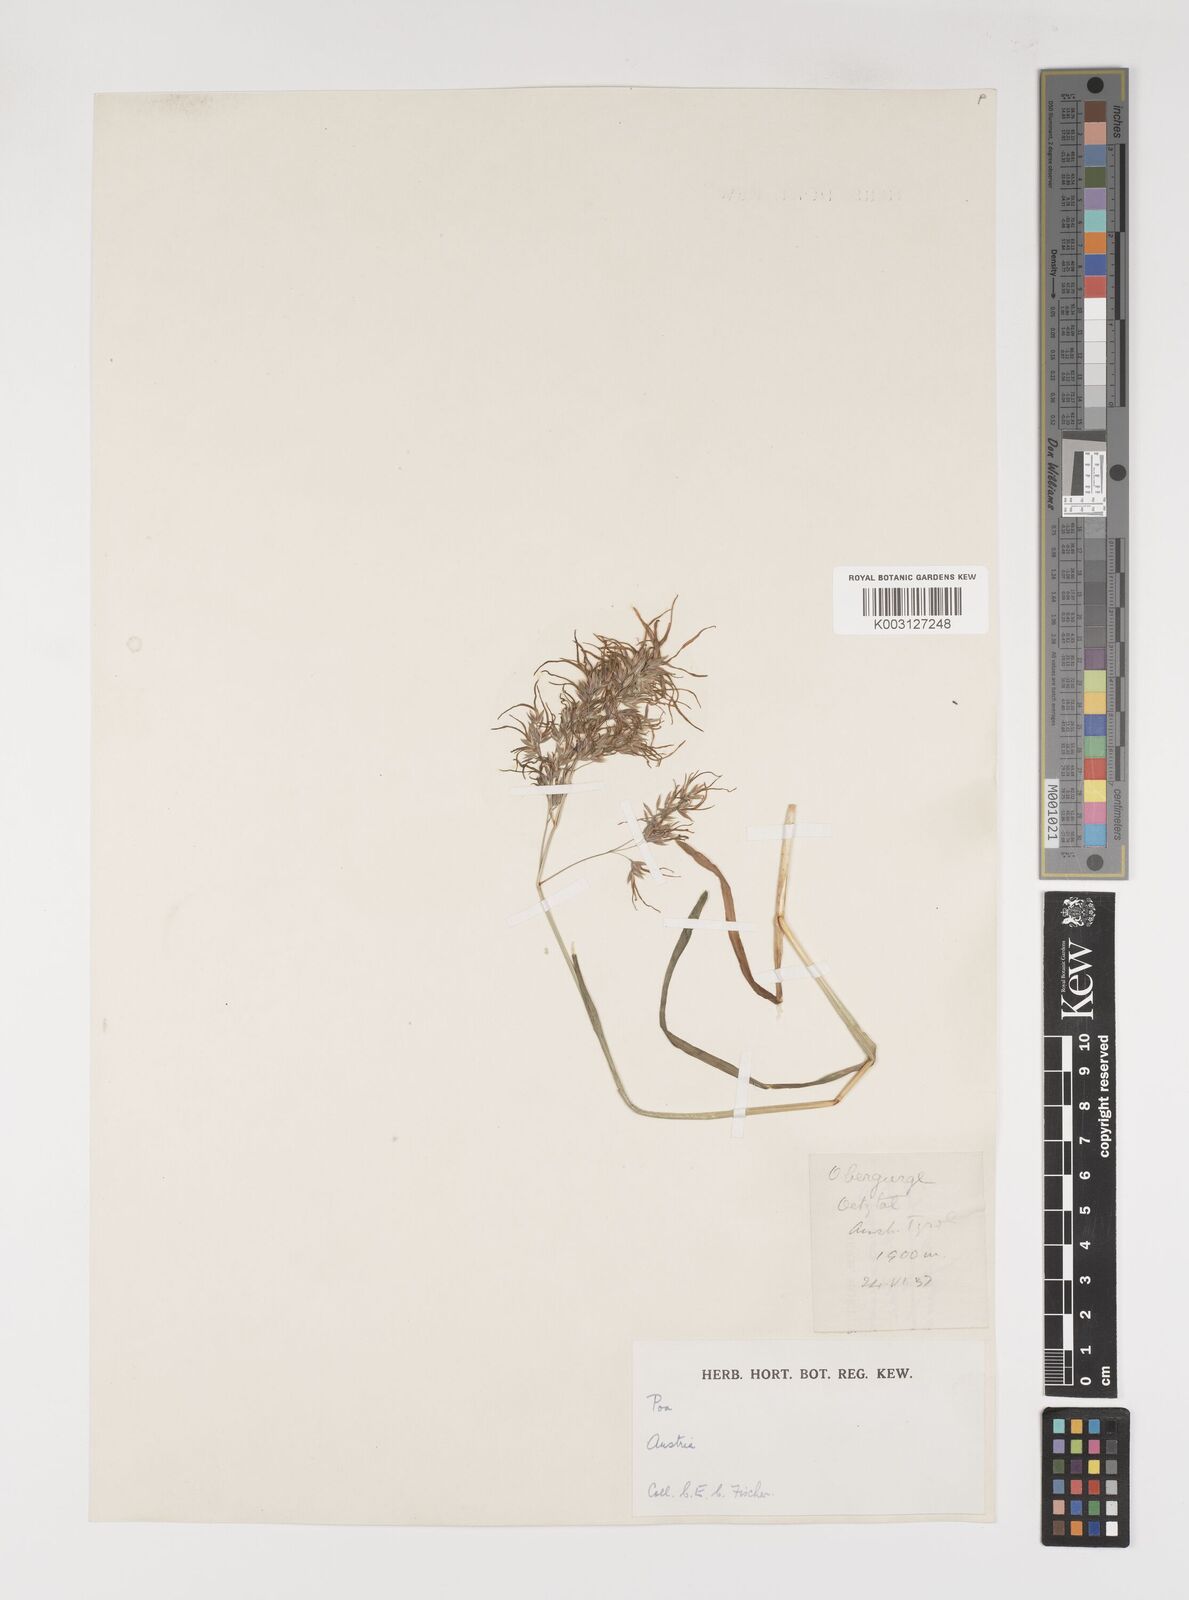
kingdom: Plantae
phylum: Tracheophyta
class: Liliopsida
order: Poales
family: Poaceae
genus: Poa
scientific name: Poa alpina
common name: Alpine bluegrass
